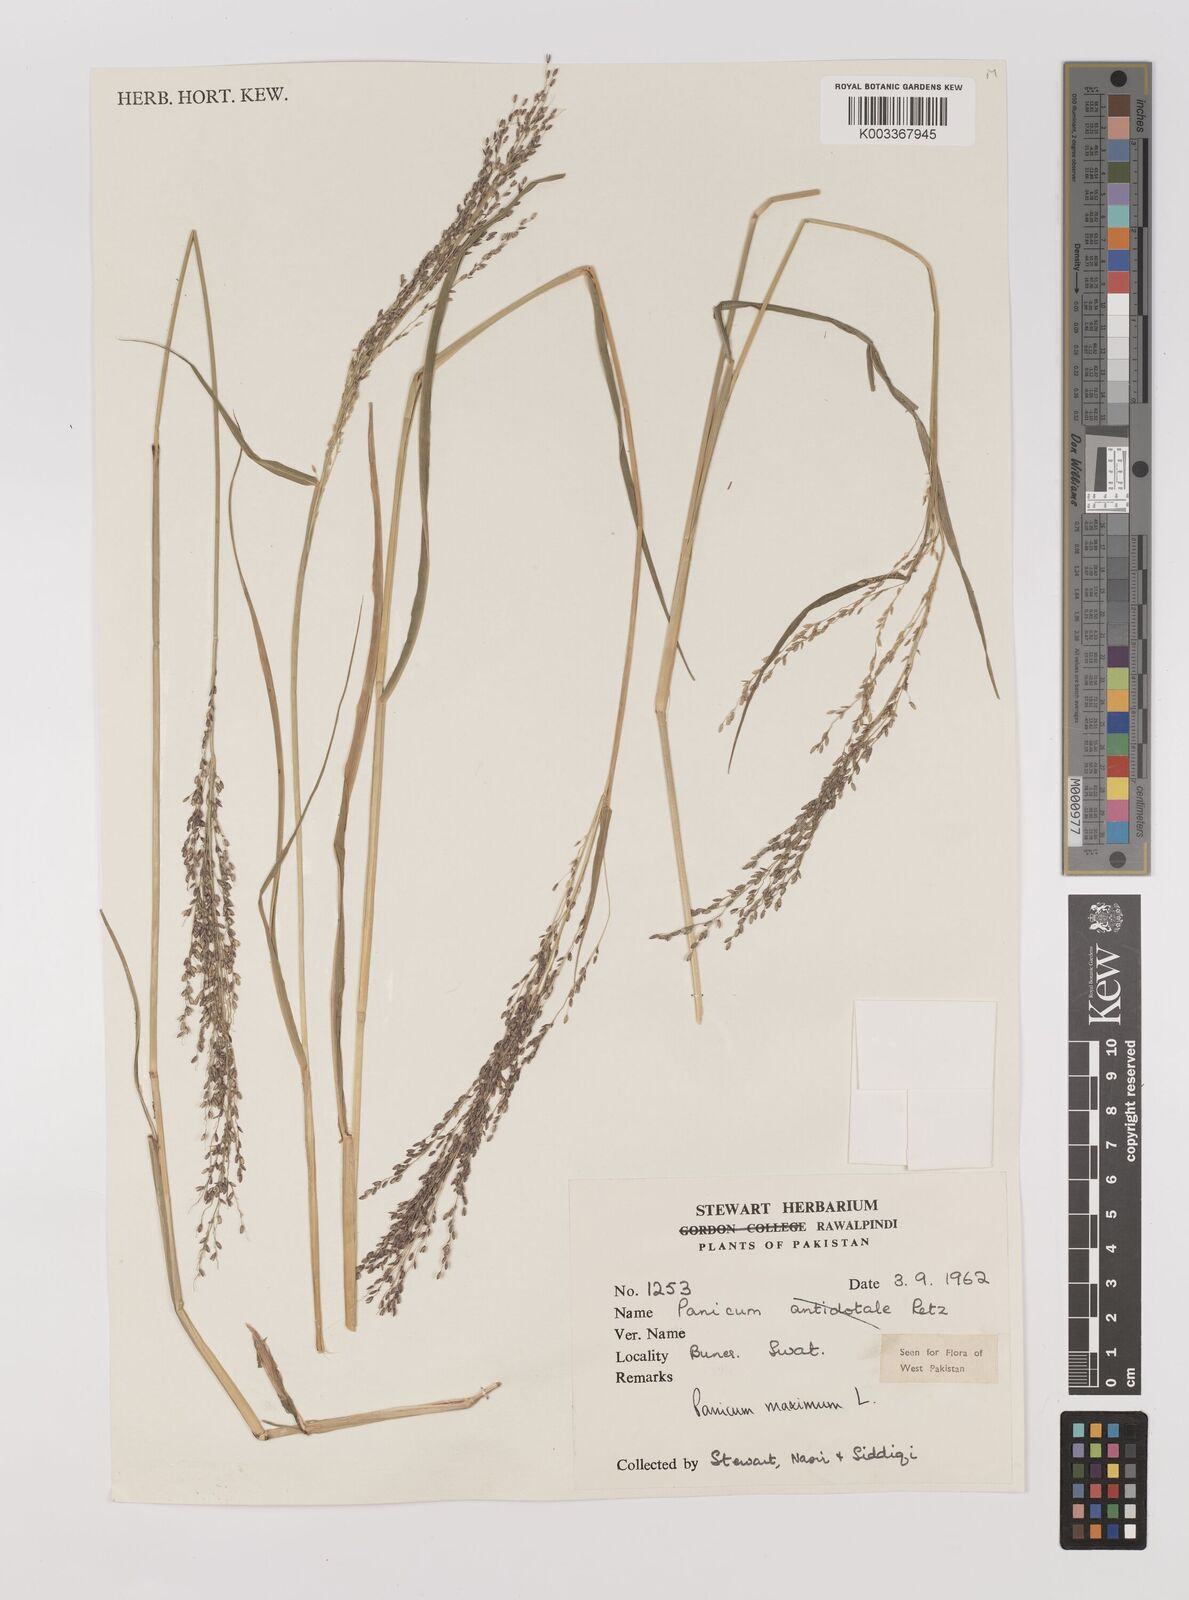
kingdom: Plantae
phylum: Tracheophyta
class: Liliopsida
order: Poales
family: Poaceae
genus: Megathyrsus
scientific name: Megathyrsus maximus
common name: Guineagrass
